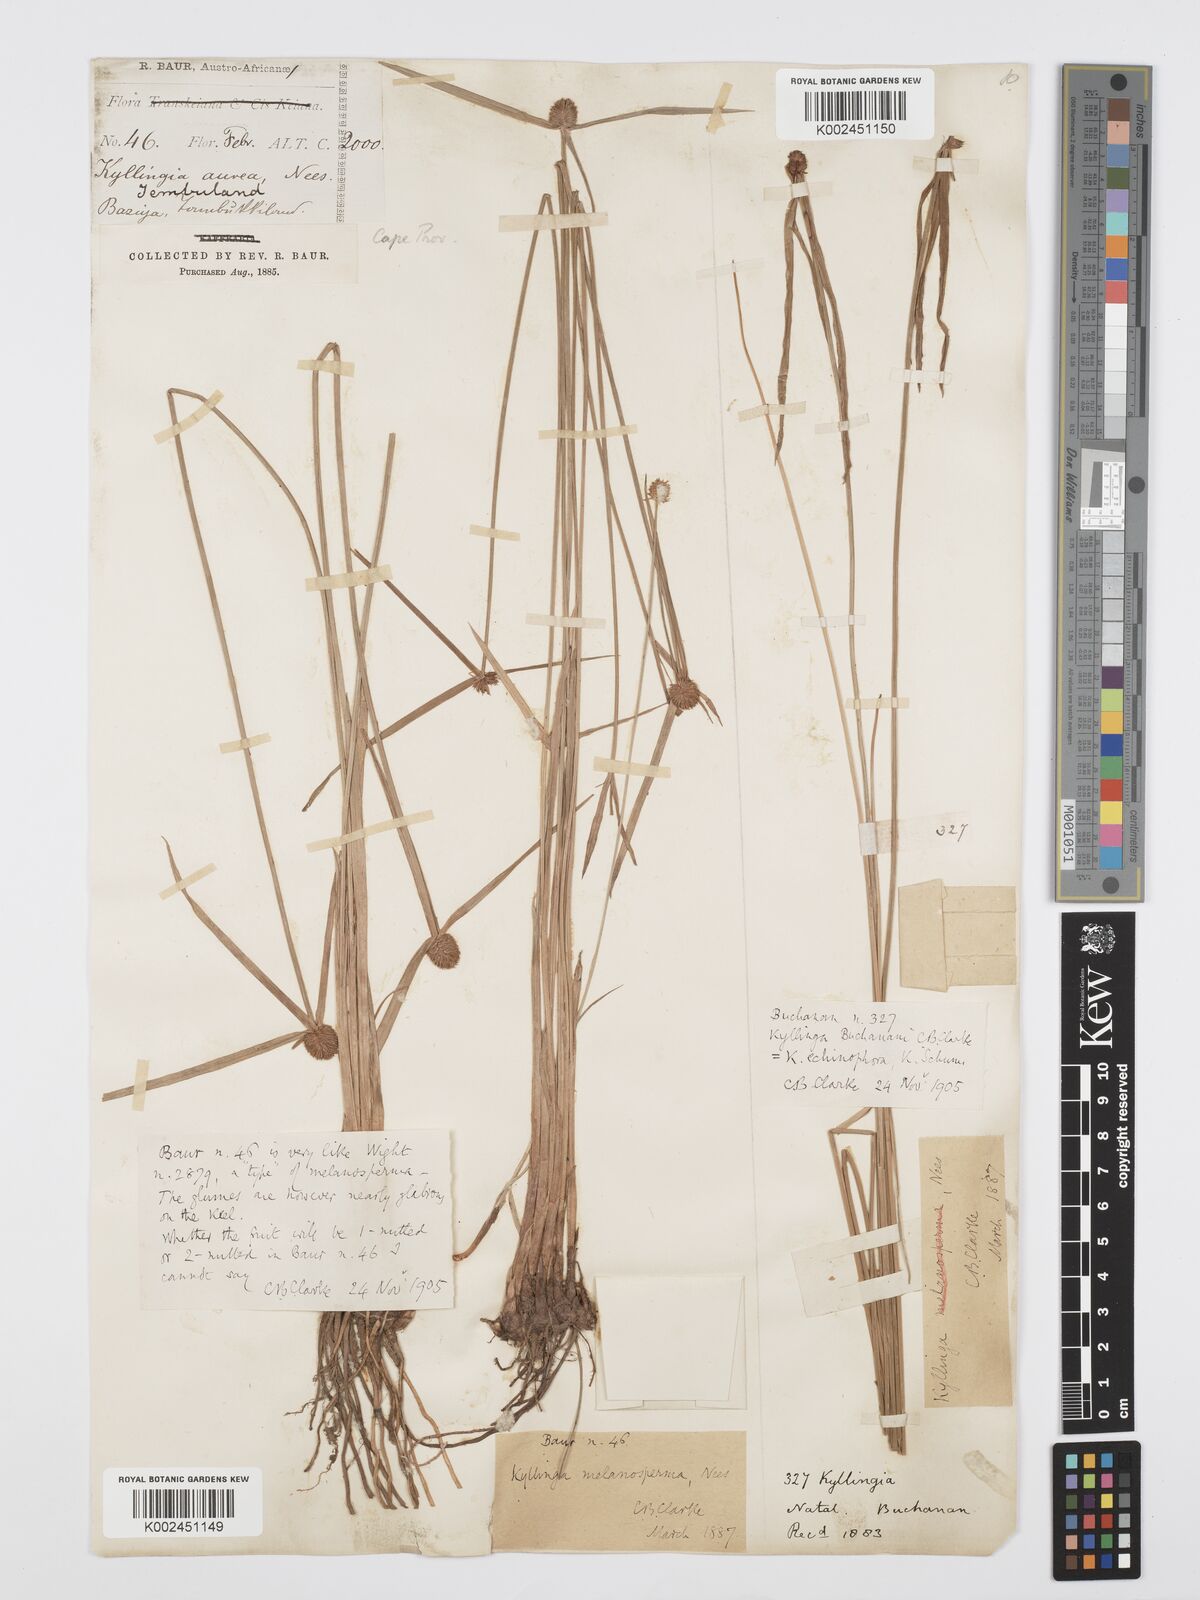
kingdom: Plantae
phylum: Tracheophyta
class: Liliopsida
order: Poales
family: Cyperaceae
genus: Cyperus
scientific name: Cyperus
